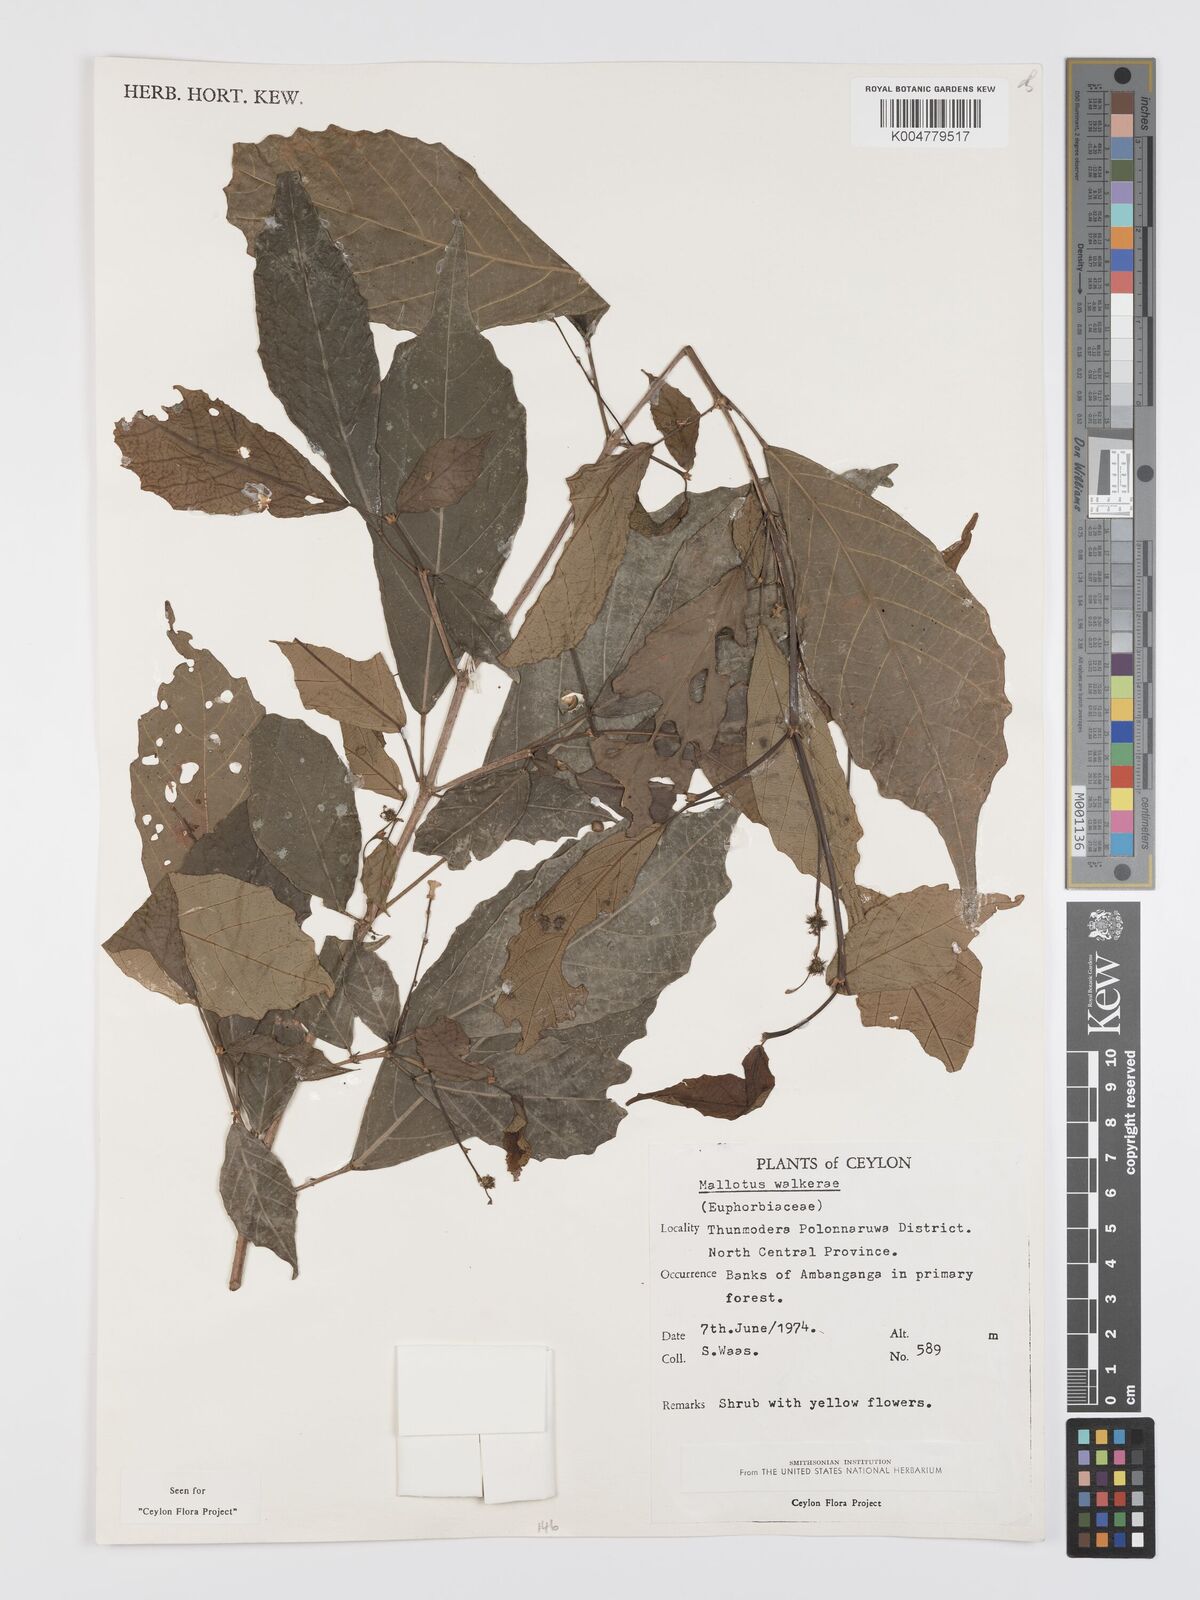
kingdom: Plantae
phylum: Tracheophyta
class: Magnoliopsida
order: Malpighiales
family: Euphorbiaceae
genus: Mallotus
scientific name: Mallotus resinosus
